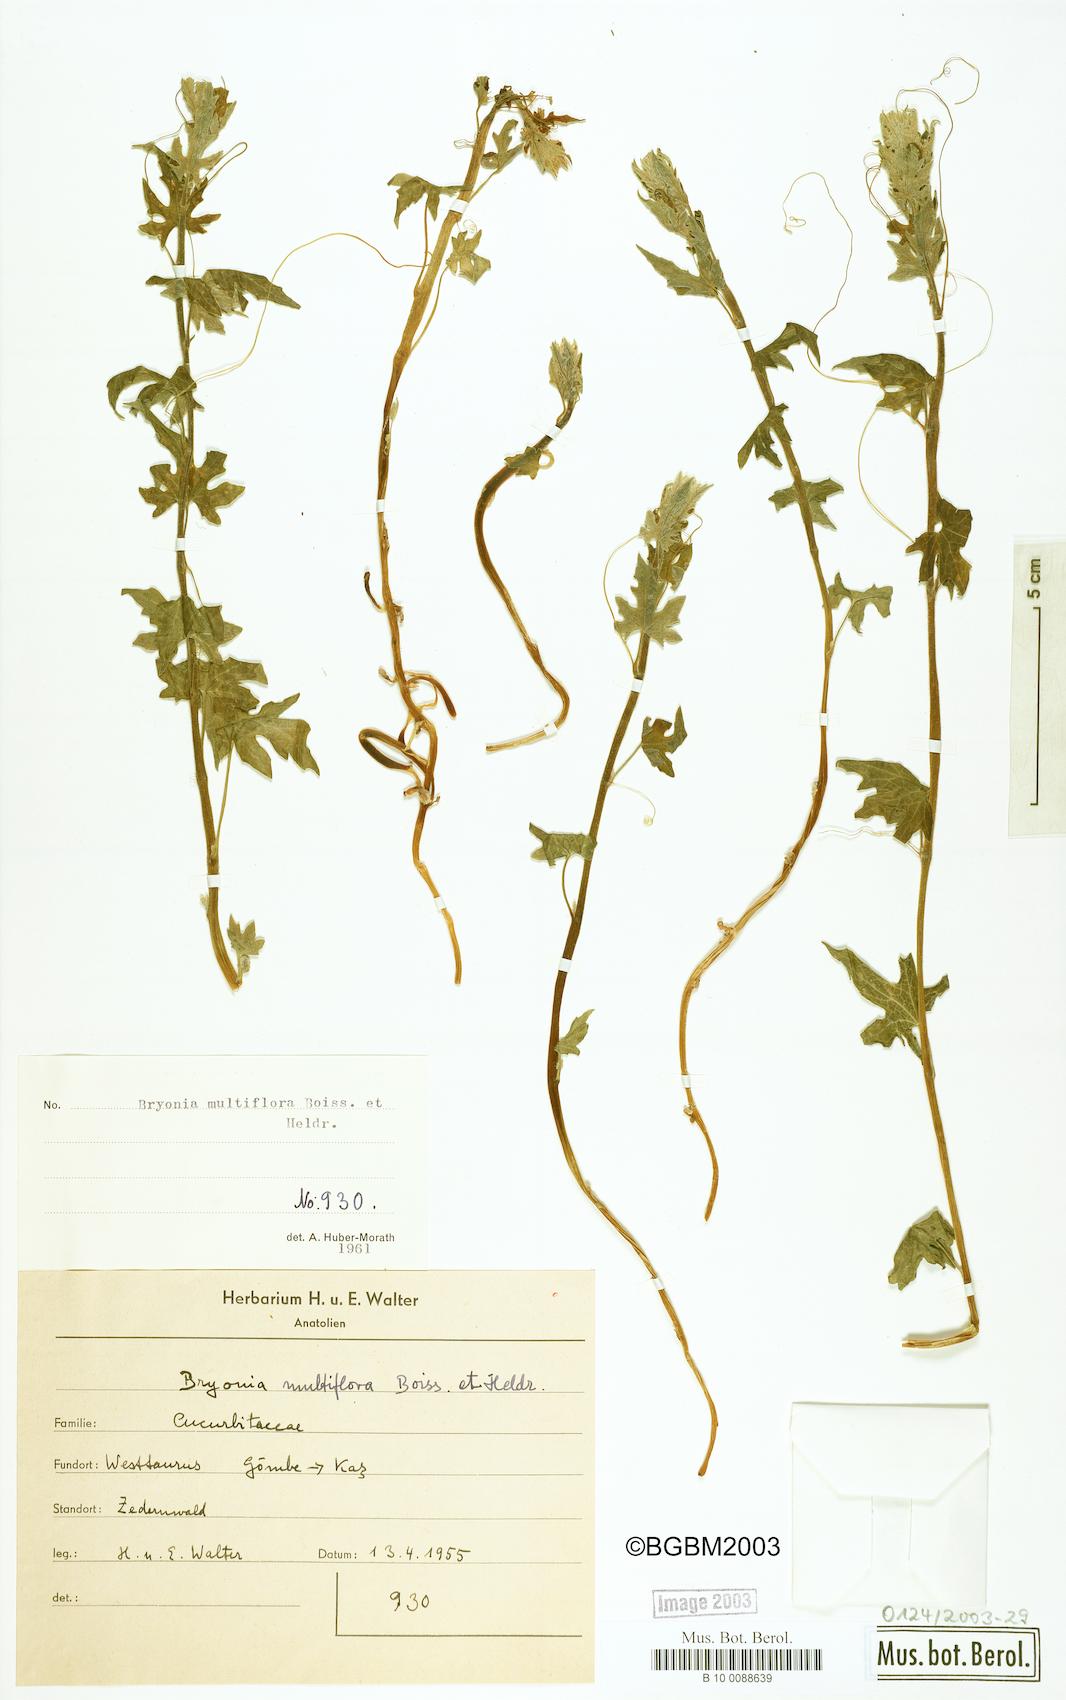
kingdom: Plantae
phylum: Tracheophyta
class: Magnoliopsida
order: Cucurbitales
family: Cucurbitaceae
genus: Bryonia
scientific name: Bryonia multiflora
